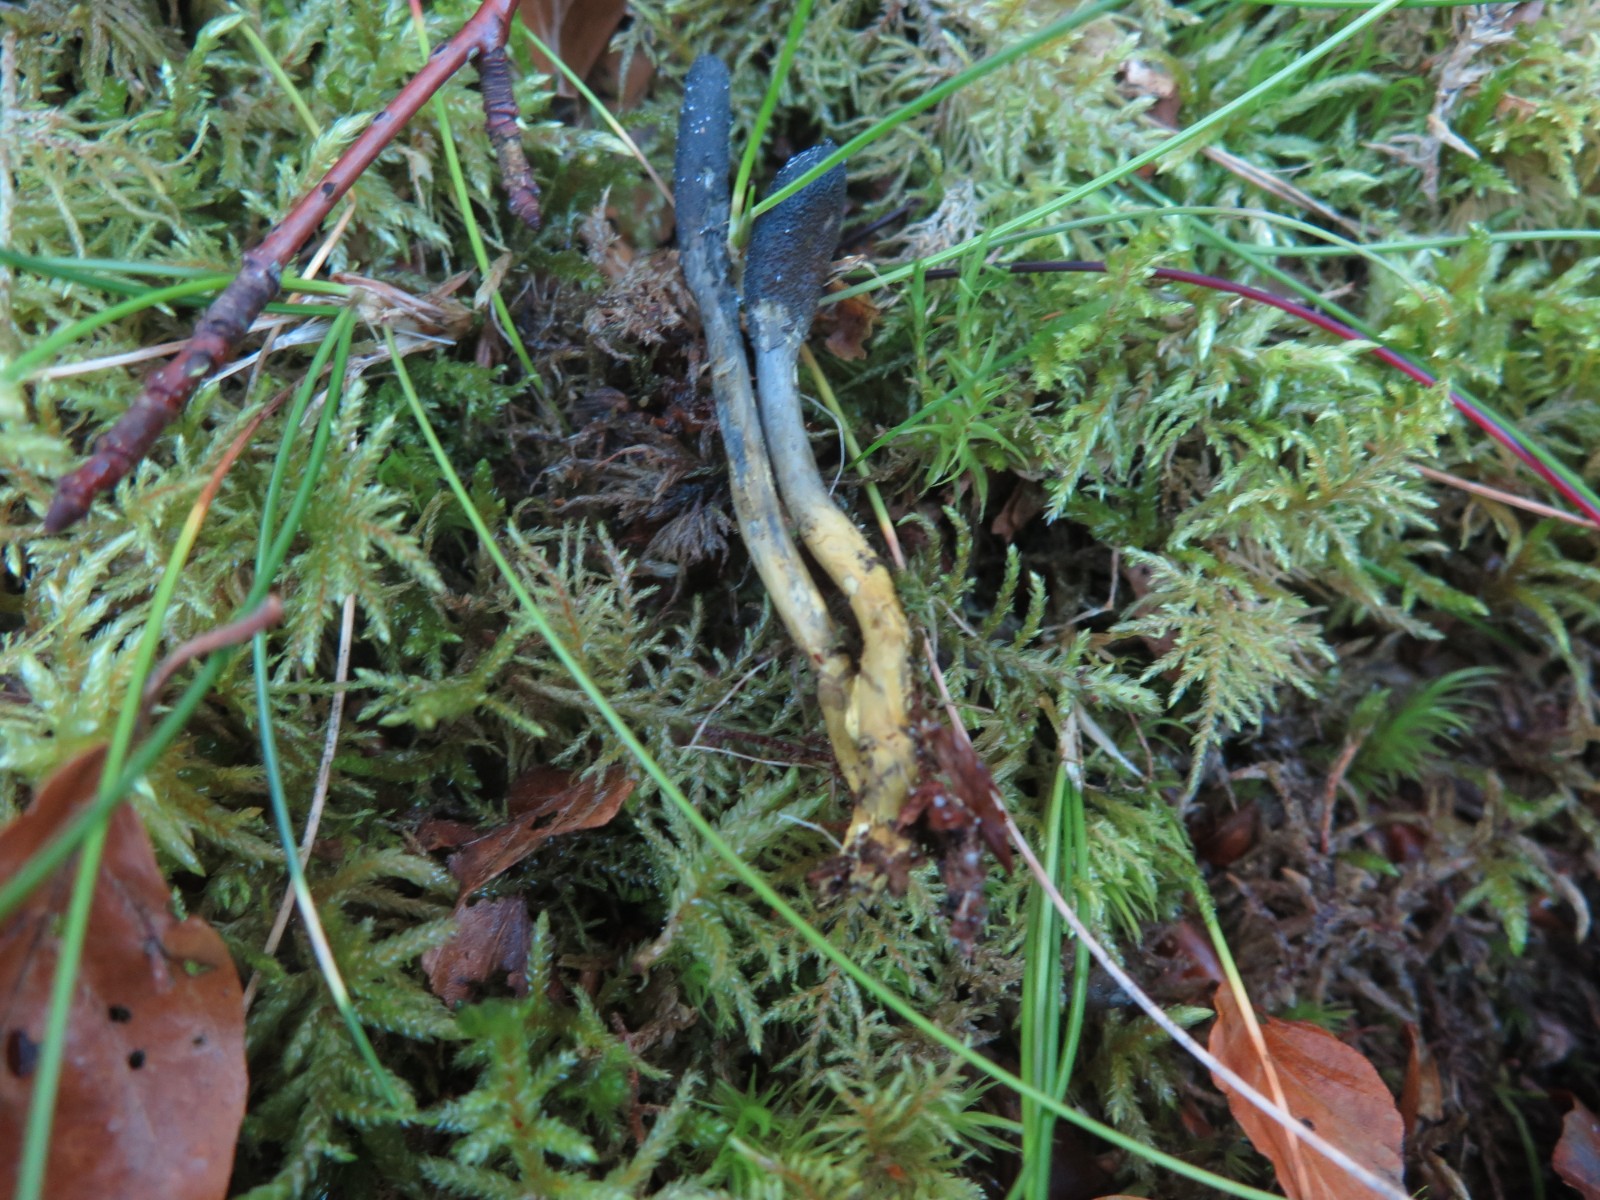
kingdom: Fungi
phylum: Ascomycota
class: Sordariomycetes
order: Hypocreales
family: Ophiocordycipitaceae
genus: Tolypocladium
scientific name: Tolypocladium ophioglossoides
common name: slank snyltekølle
